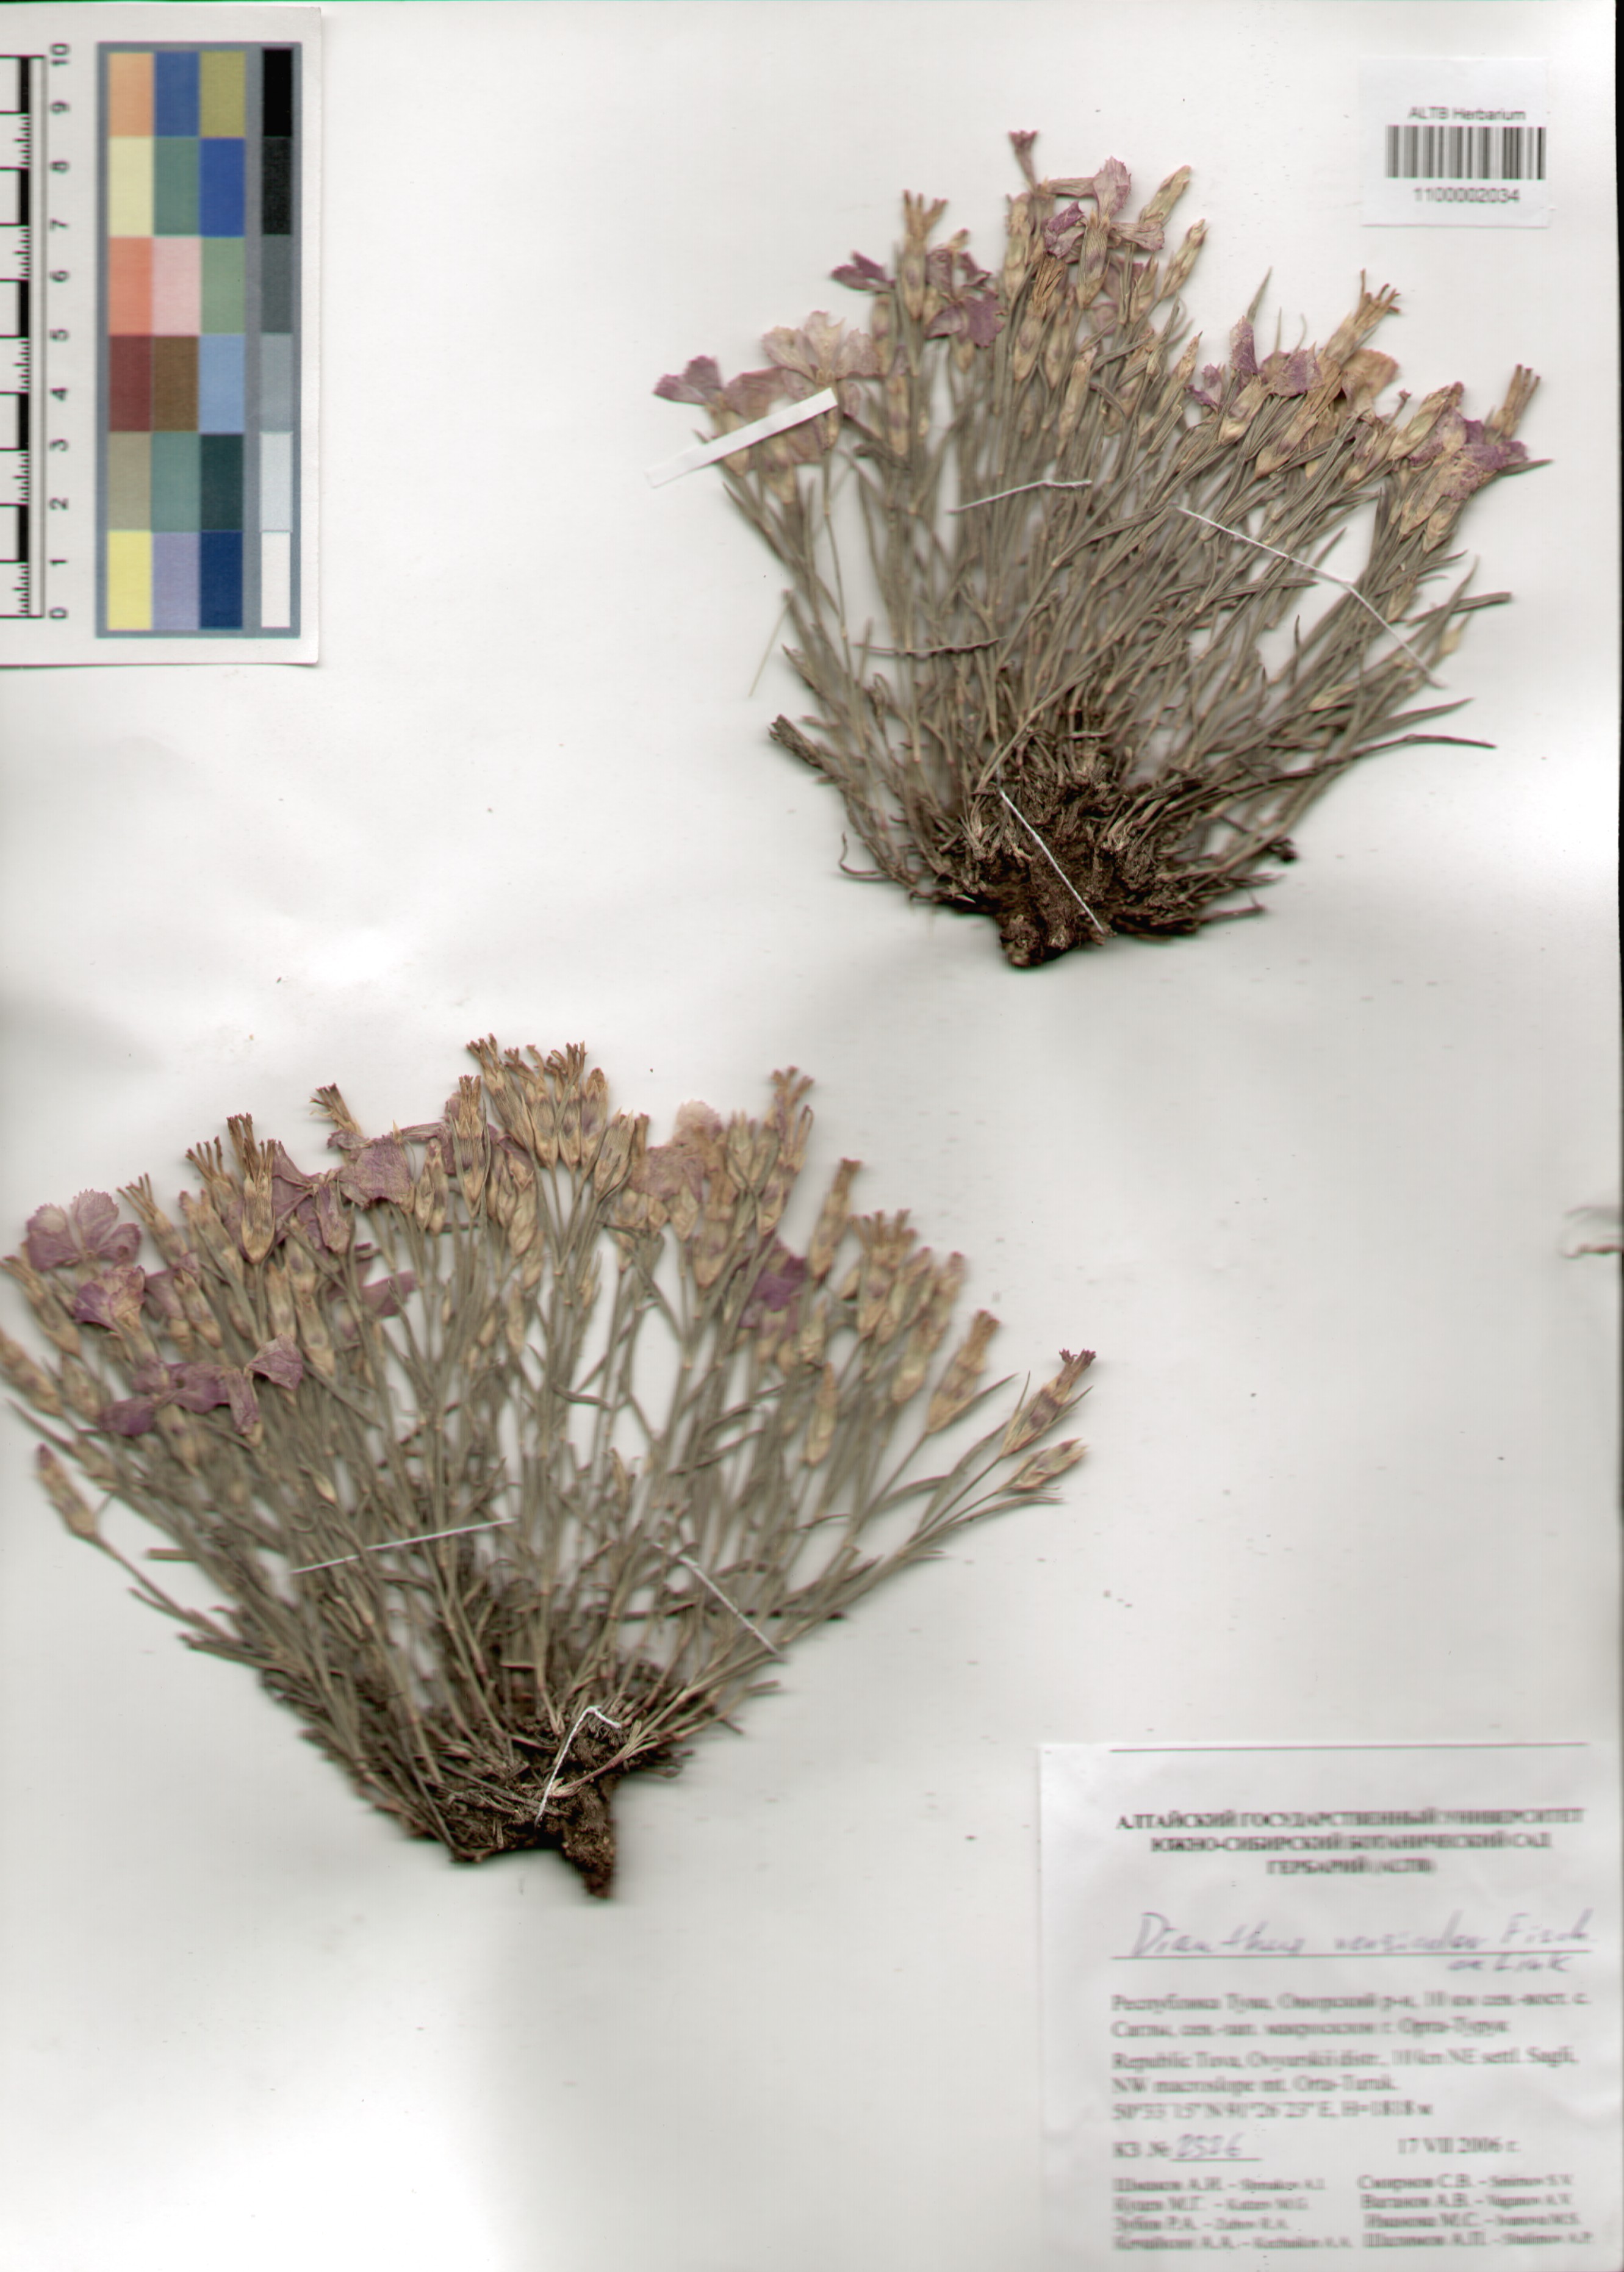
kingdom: Plantae
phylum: Tracheophyta
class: Magnoliopsida
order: Caryophyllales
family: Caryophyllaceae
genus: Dianthus
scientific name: Dianthus chinensis
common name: Rainbow pink
